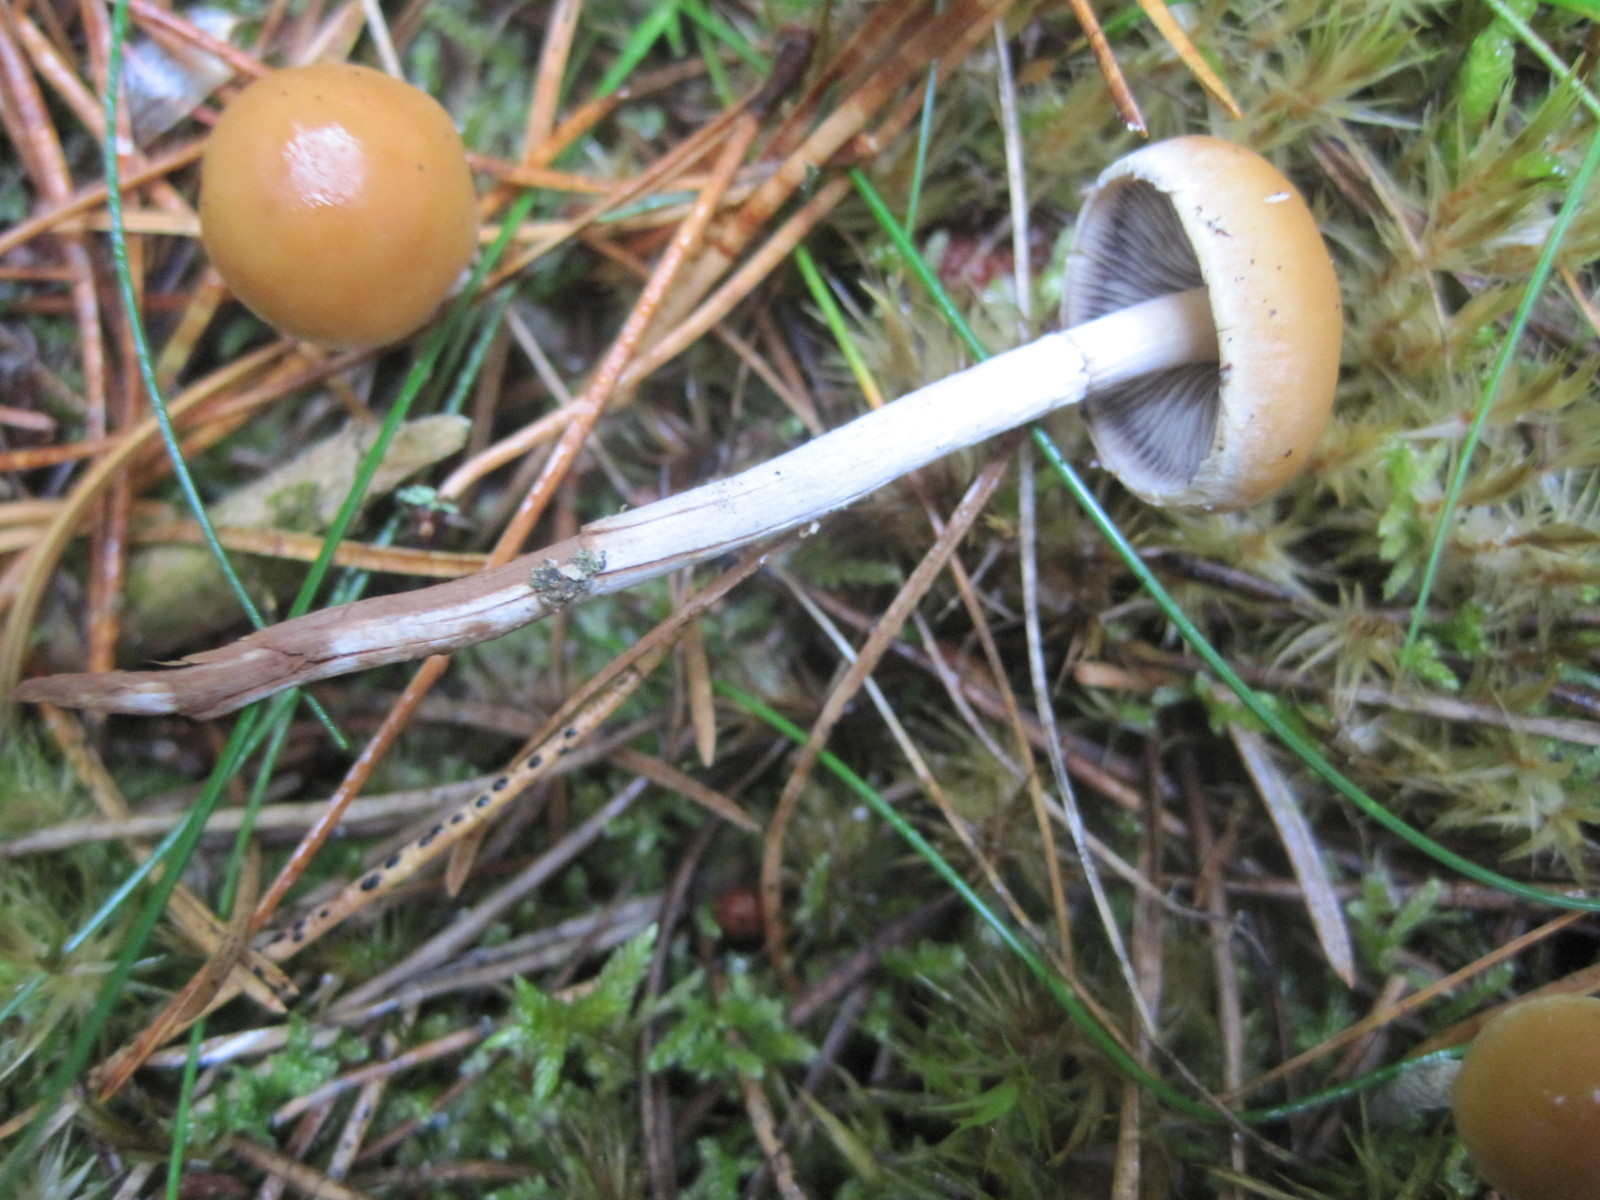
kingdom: Fungi
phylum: Basidiomycota
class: Agaricomycetes
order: Agaricales
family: Strophariaceae
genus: Hypholoma
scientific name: Hypholoma marginatum
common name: enlig svovlhat
